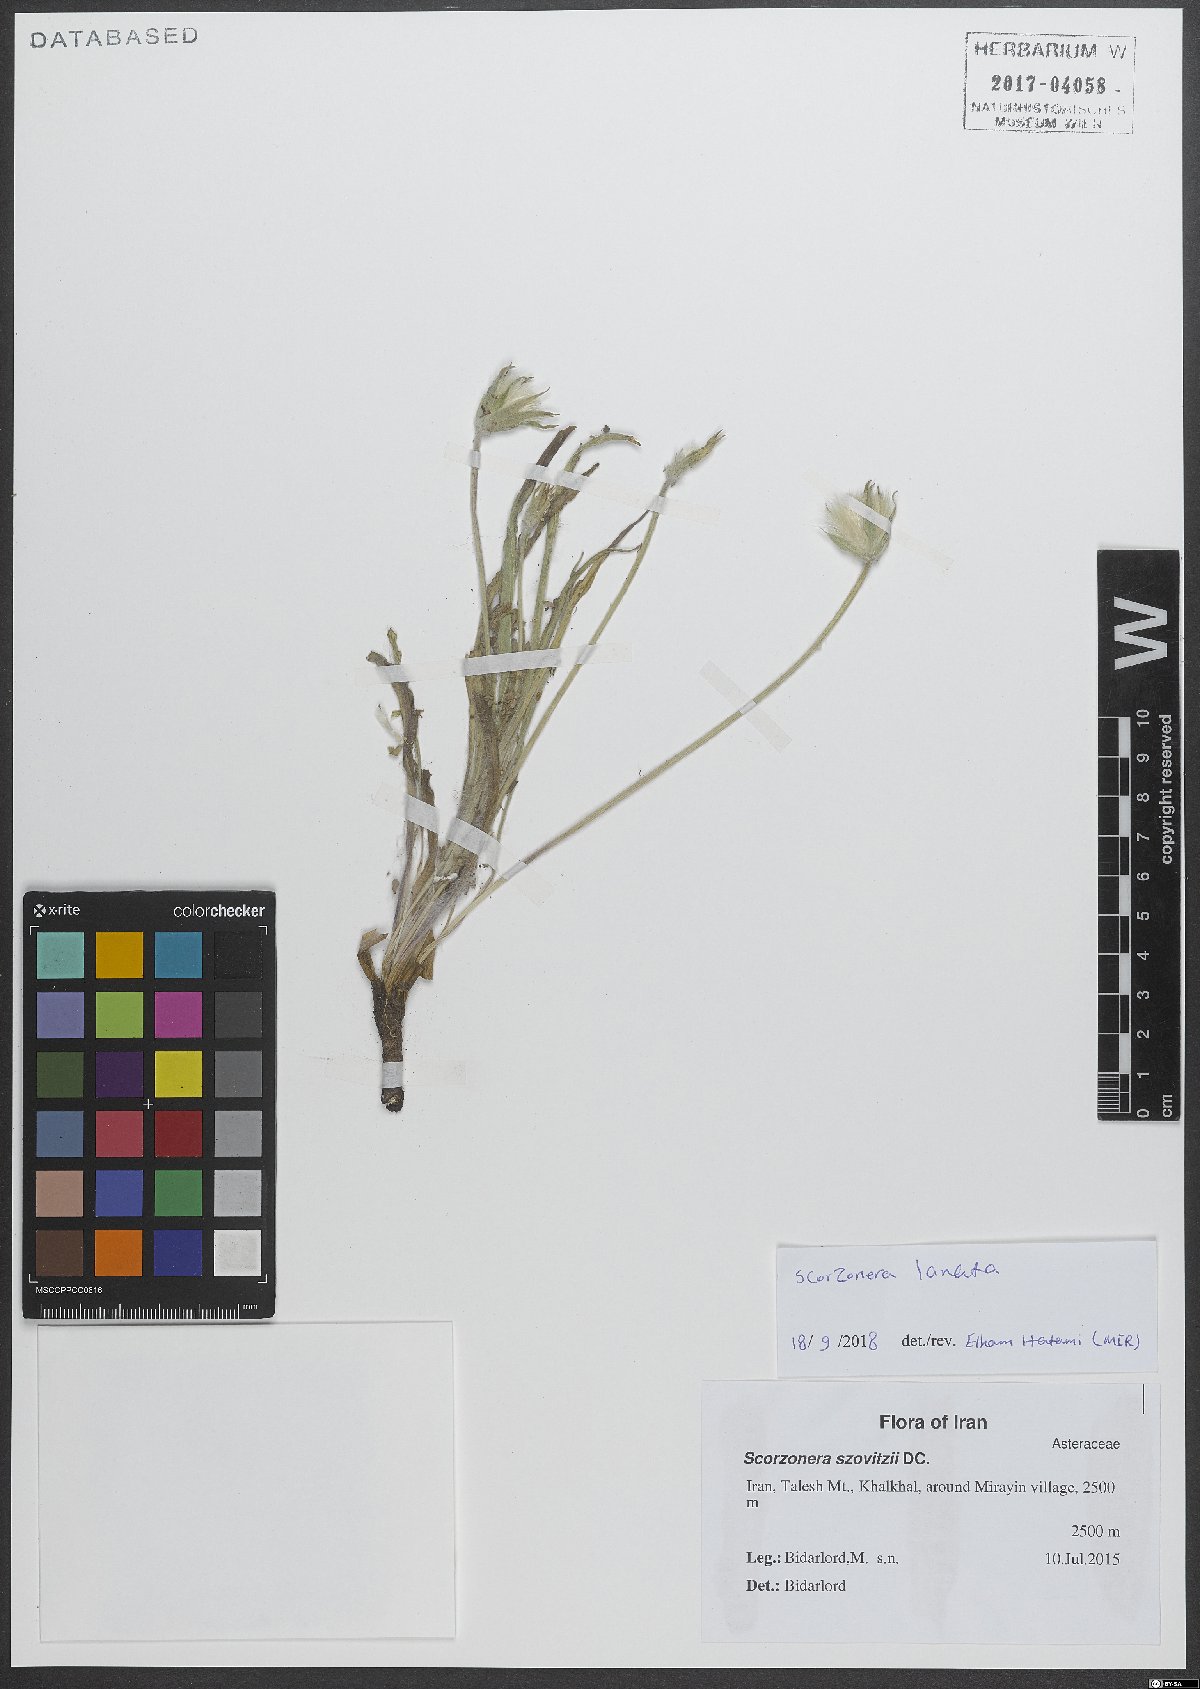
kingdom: Plantae
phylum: Tracheophyta
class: Magnoliopsida
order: Asterales
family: Asteraceae
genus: Bocquetia
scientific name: Bocquetia lanata
